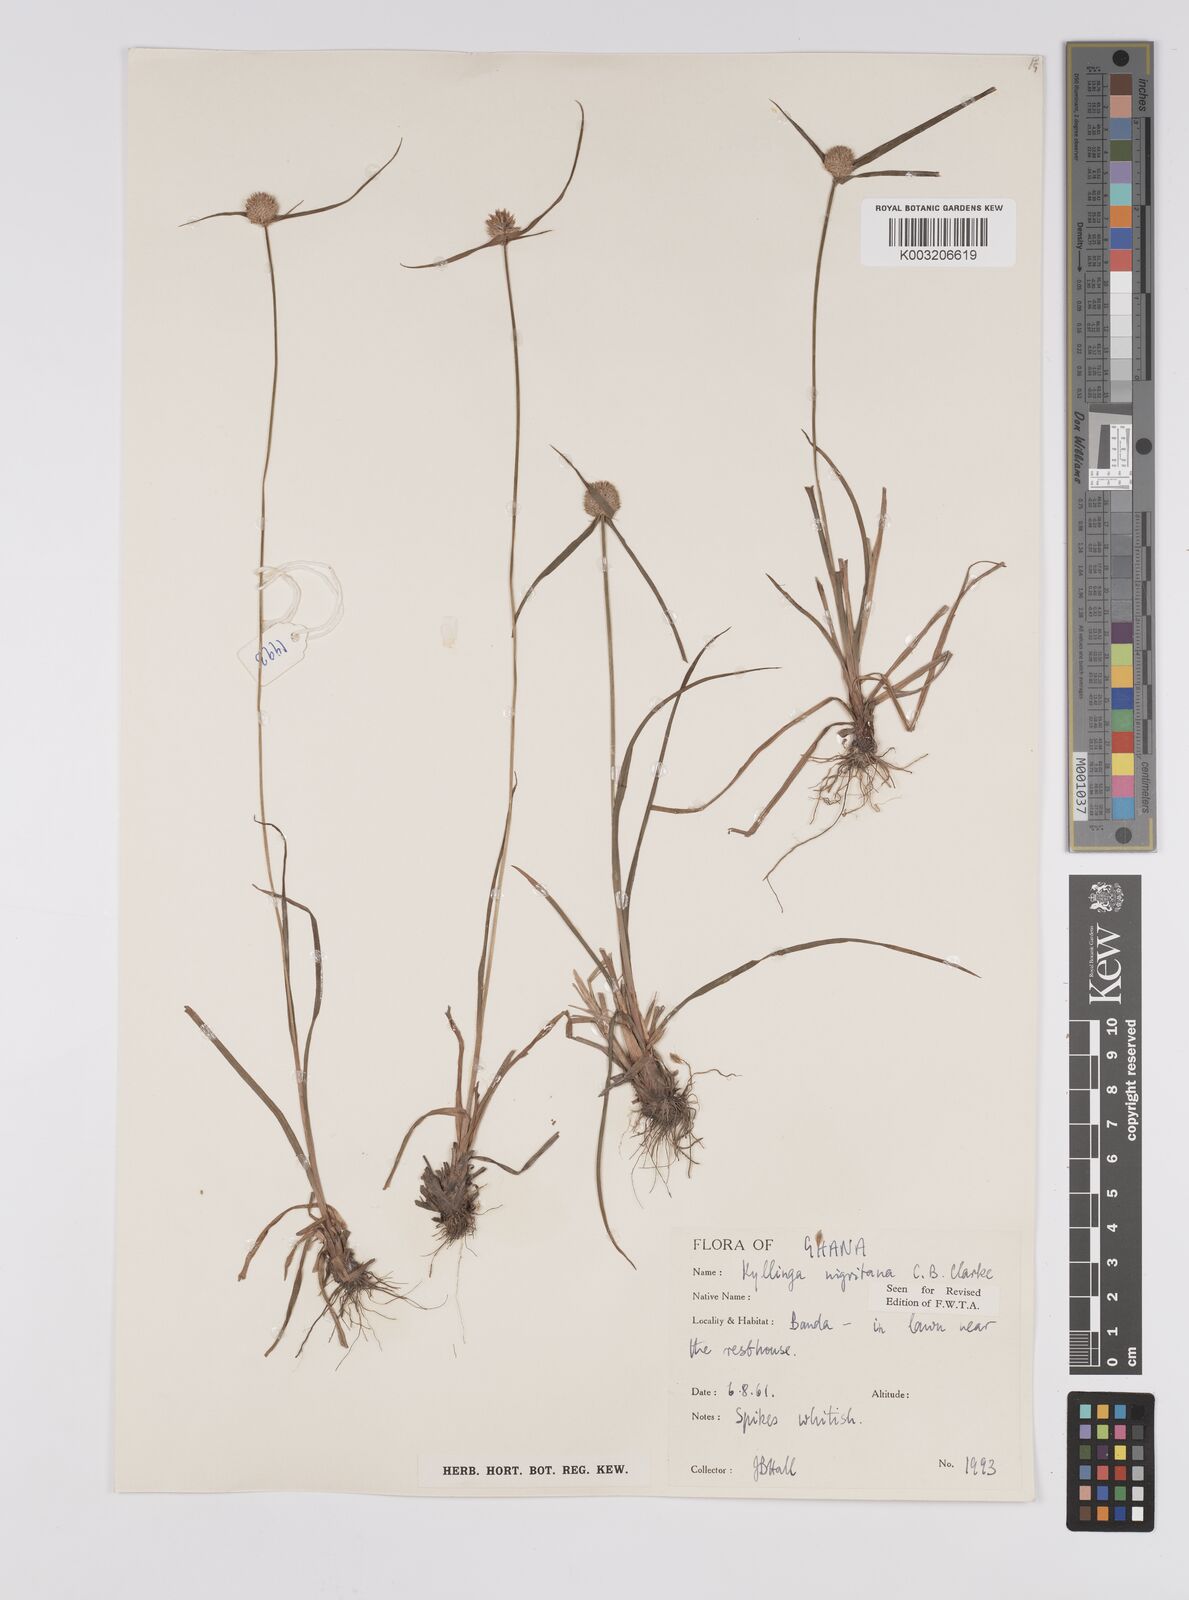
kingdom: Plantae
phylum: Tracheophyta
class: Liliopsida
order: Poales
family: Cyperaceae
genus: Cyperus
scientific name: Cyperus alatus
